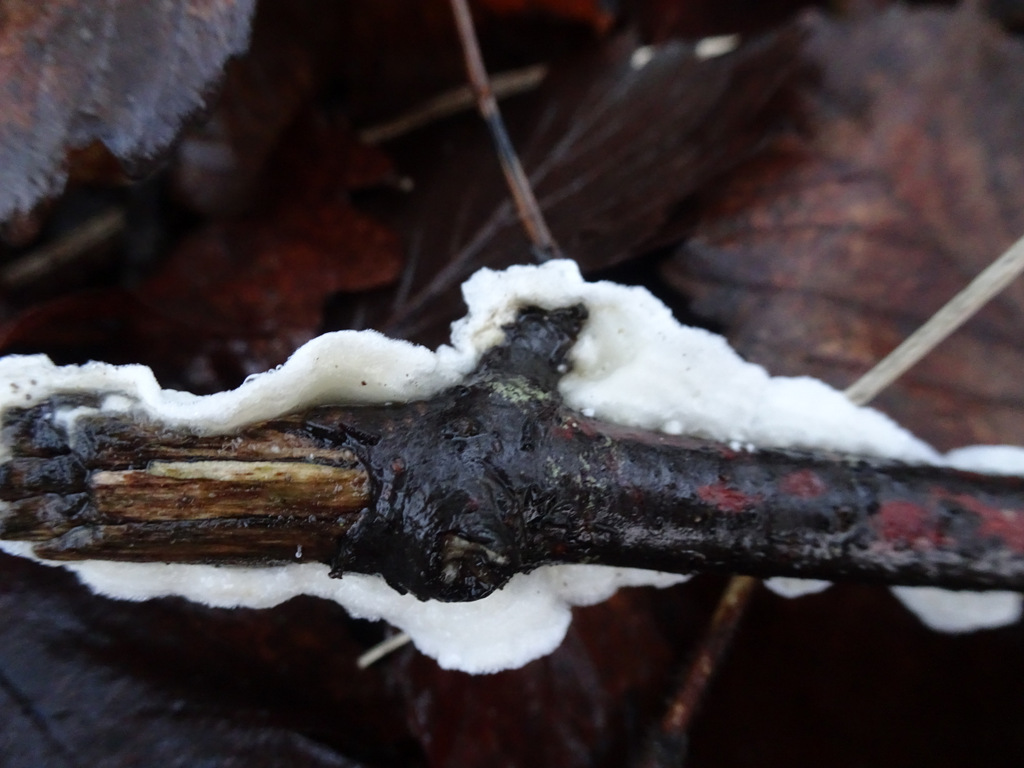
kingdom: Fungi
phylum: Basidiomycota
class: Agaricomycetes
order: Polyporales
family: Irpicaceae
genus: Byssomerulius
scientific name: Byssomerulius corium
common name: læder-åresvamp
